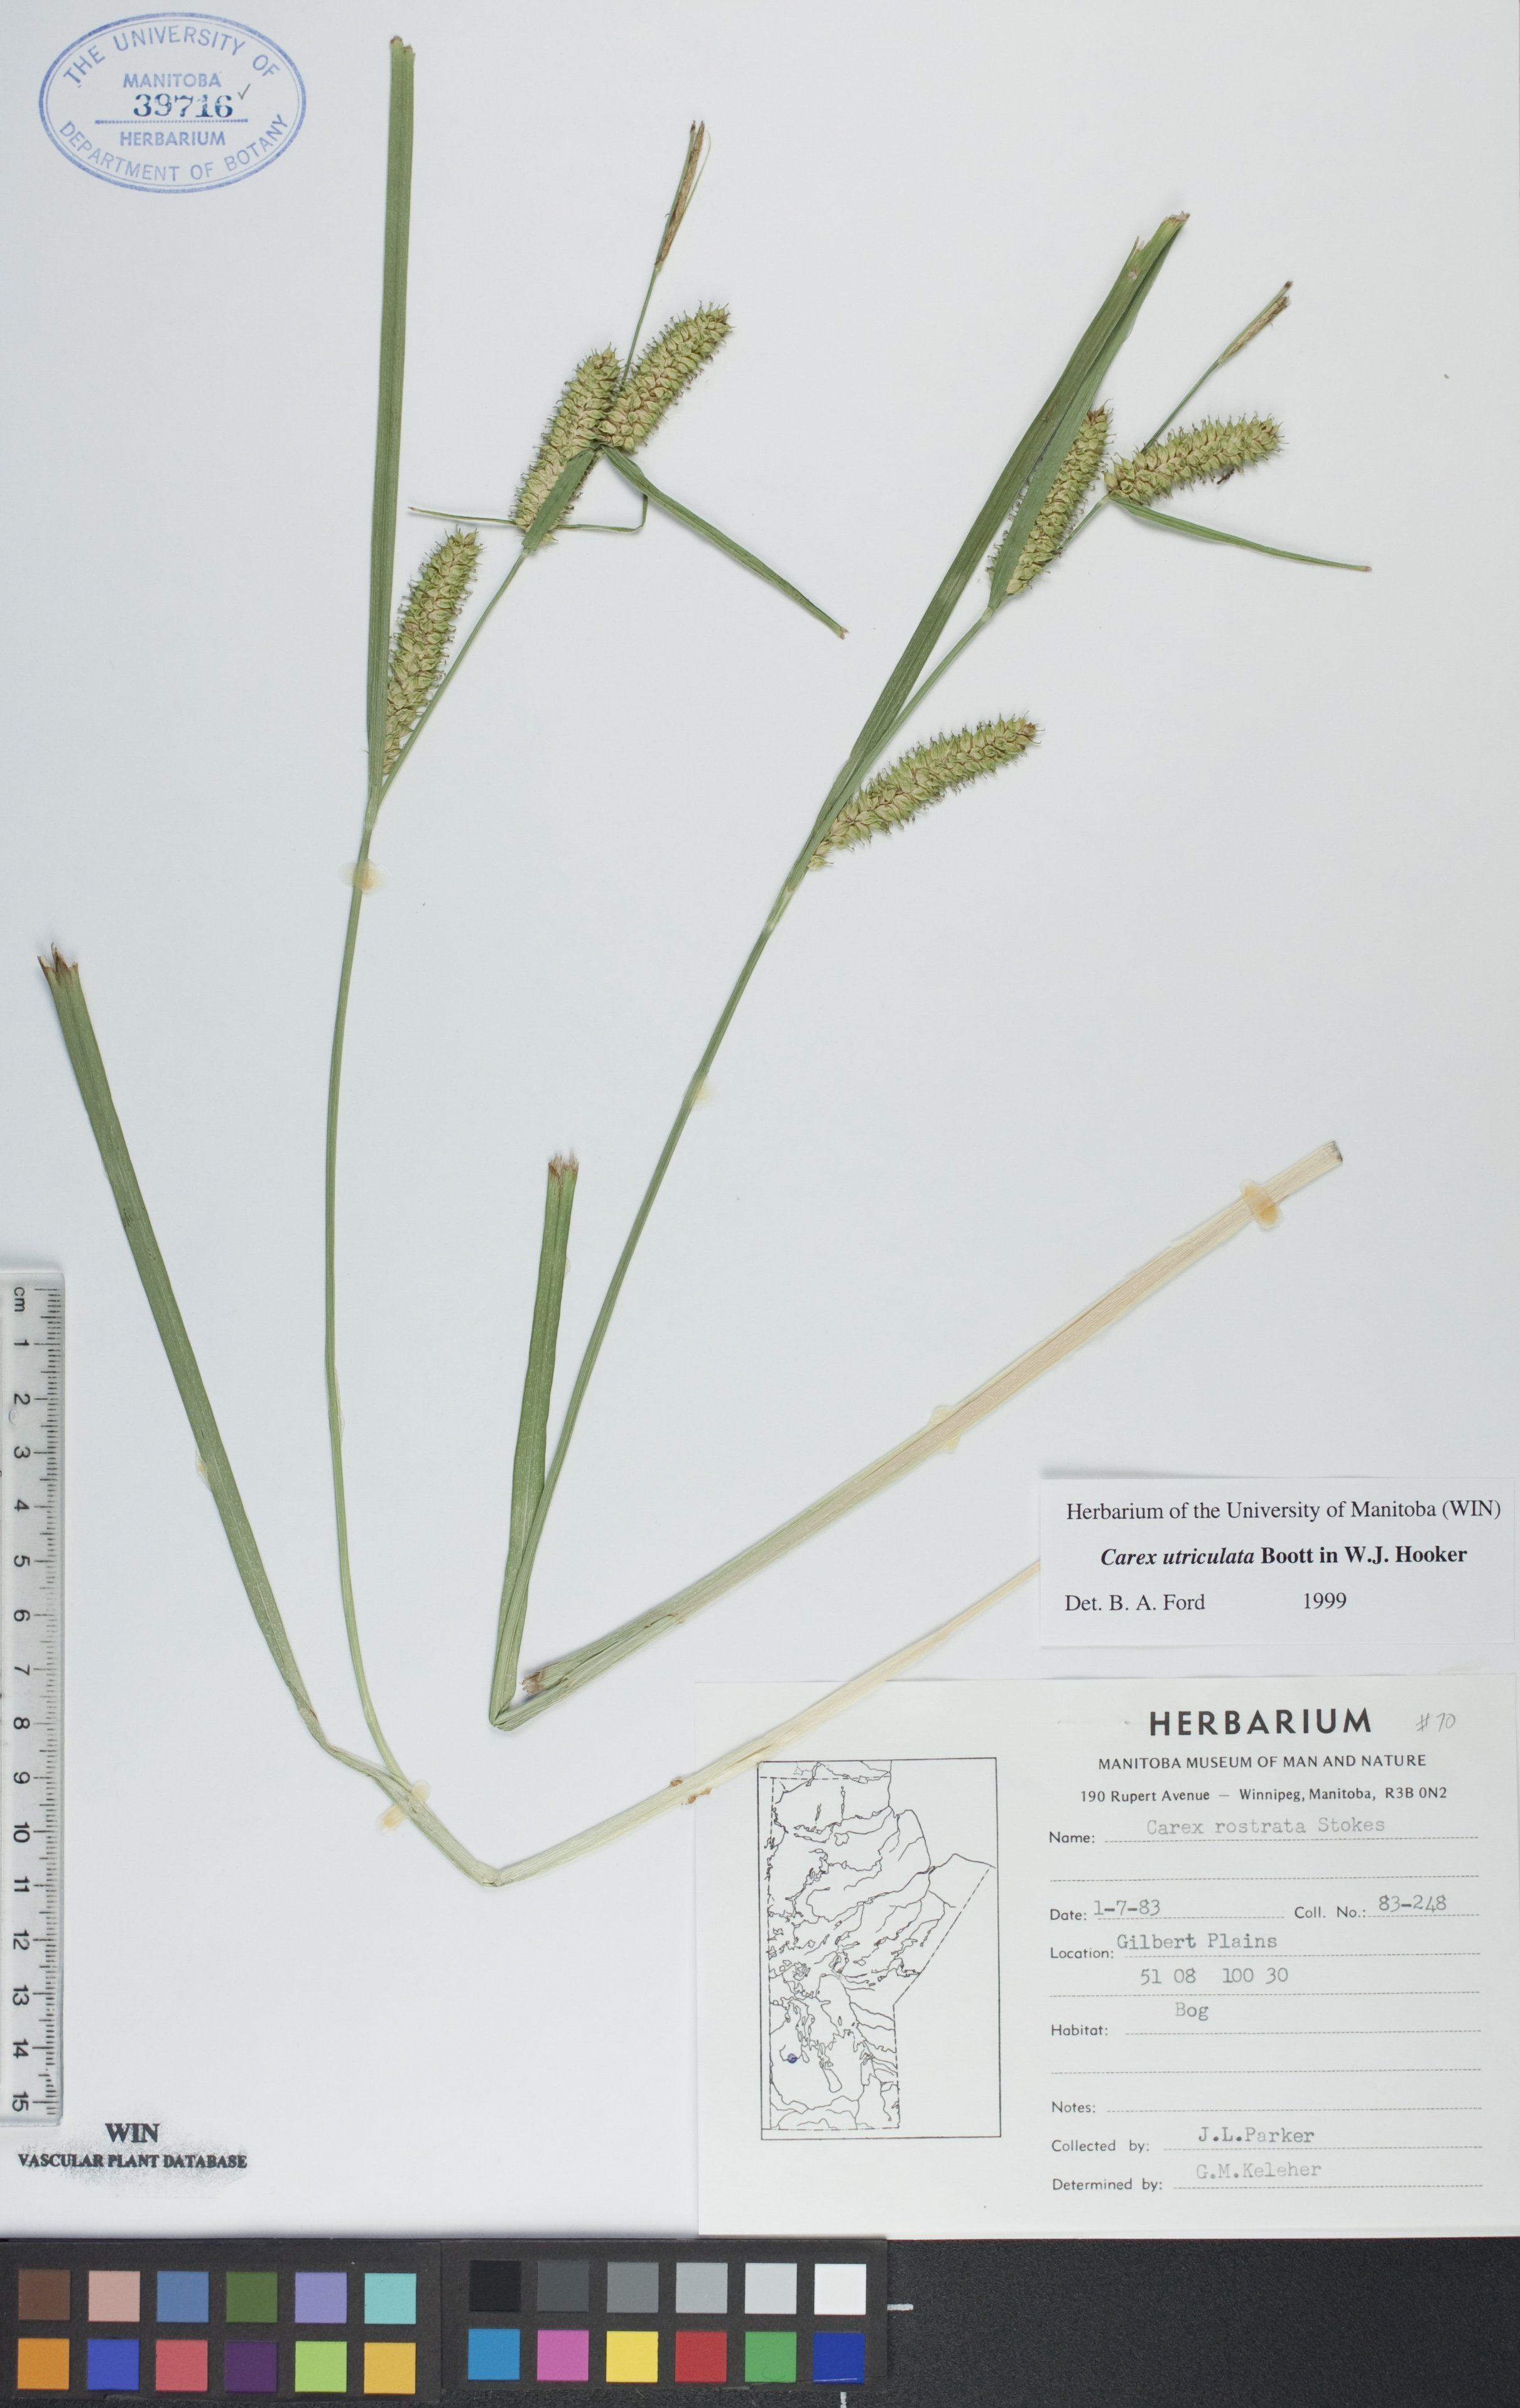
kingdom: Plantae
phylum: Tracheophyta
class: Liliopsida
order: Poales
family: Cyperaceae
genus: Carex
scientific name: Carex utriculata
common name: Beaked sedge
